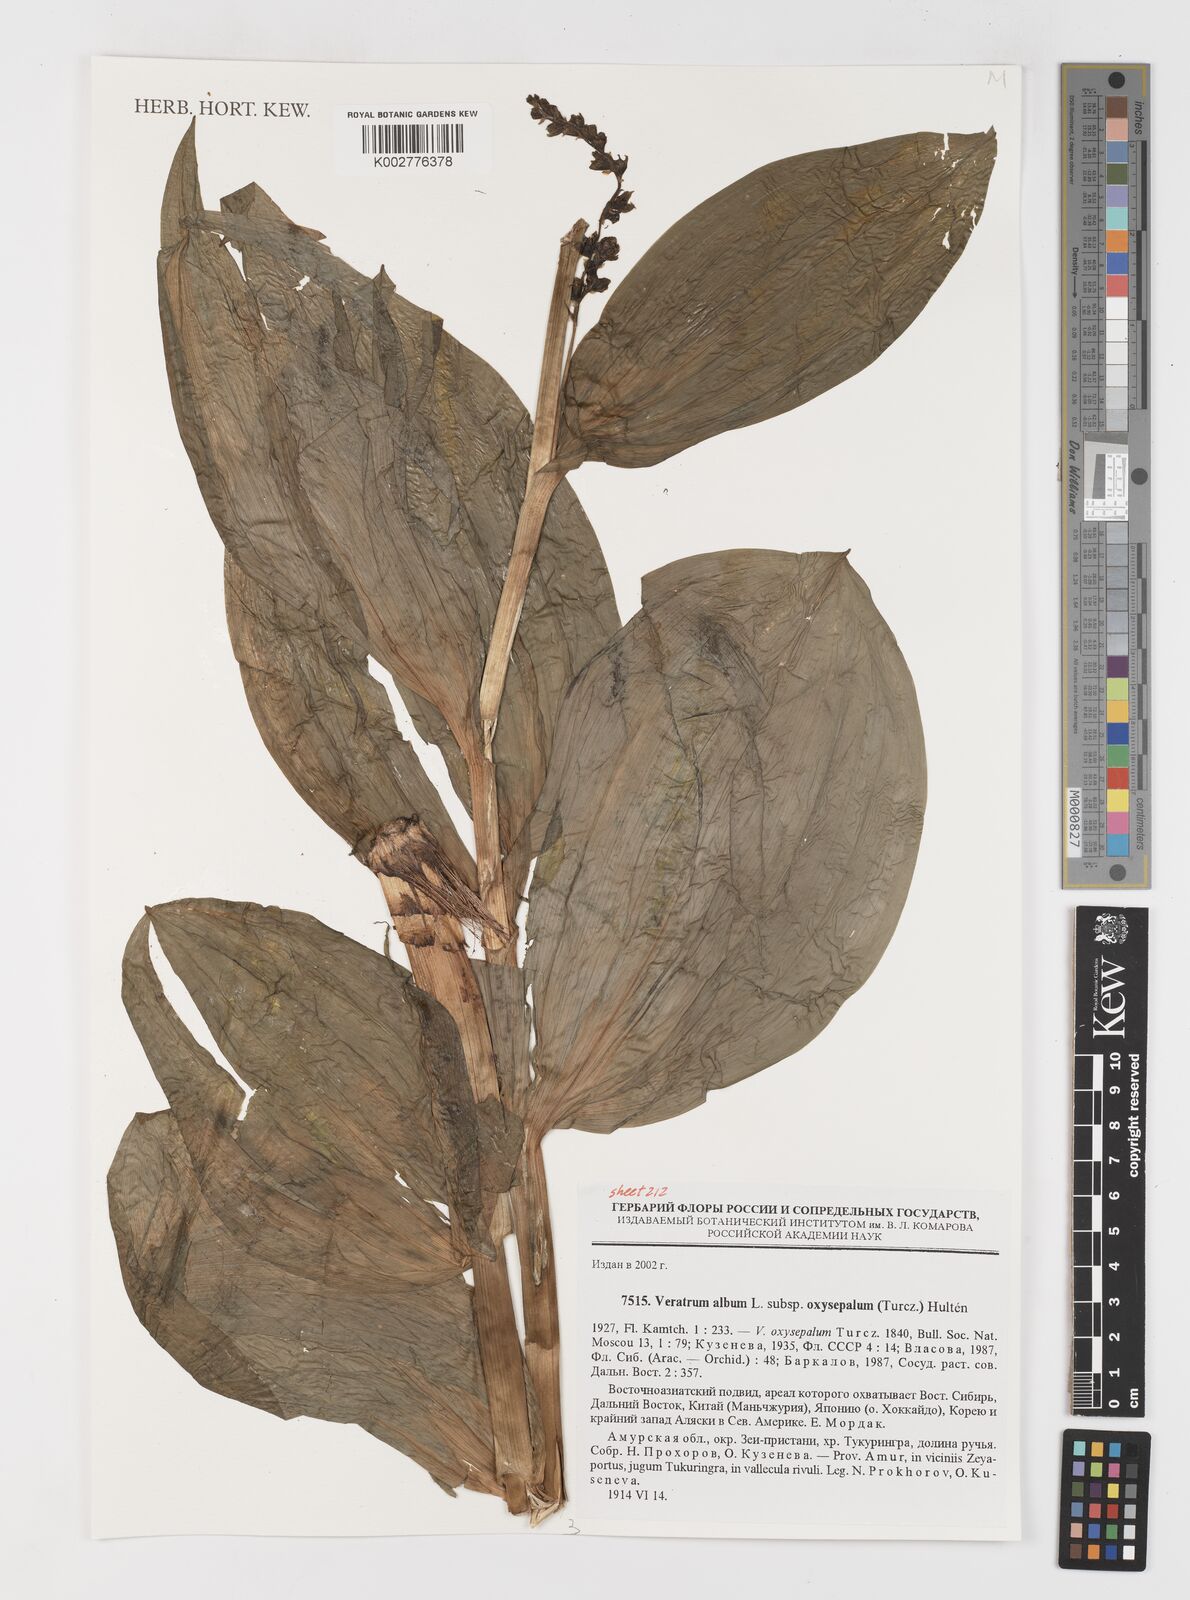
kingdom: Plantae
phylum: Tracheophyta
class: Liliopsida
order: Liliales
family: Melanthiaceae
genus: Veratrum
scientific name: Veratrum oxysepalum
